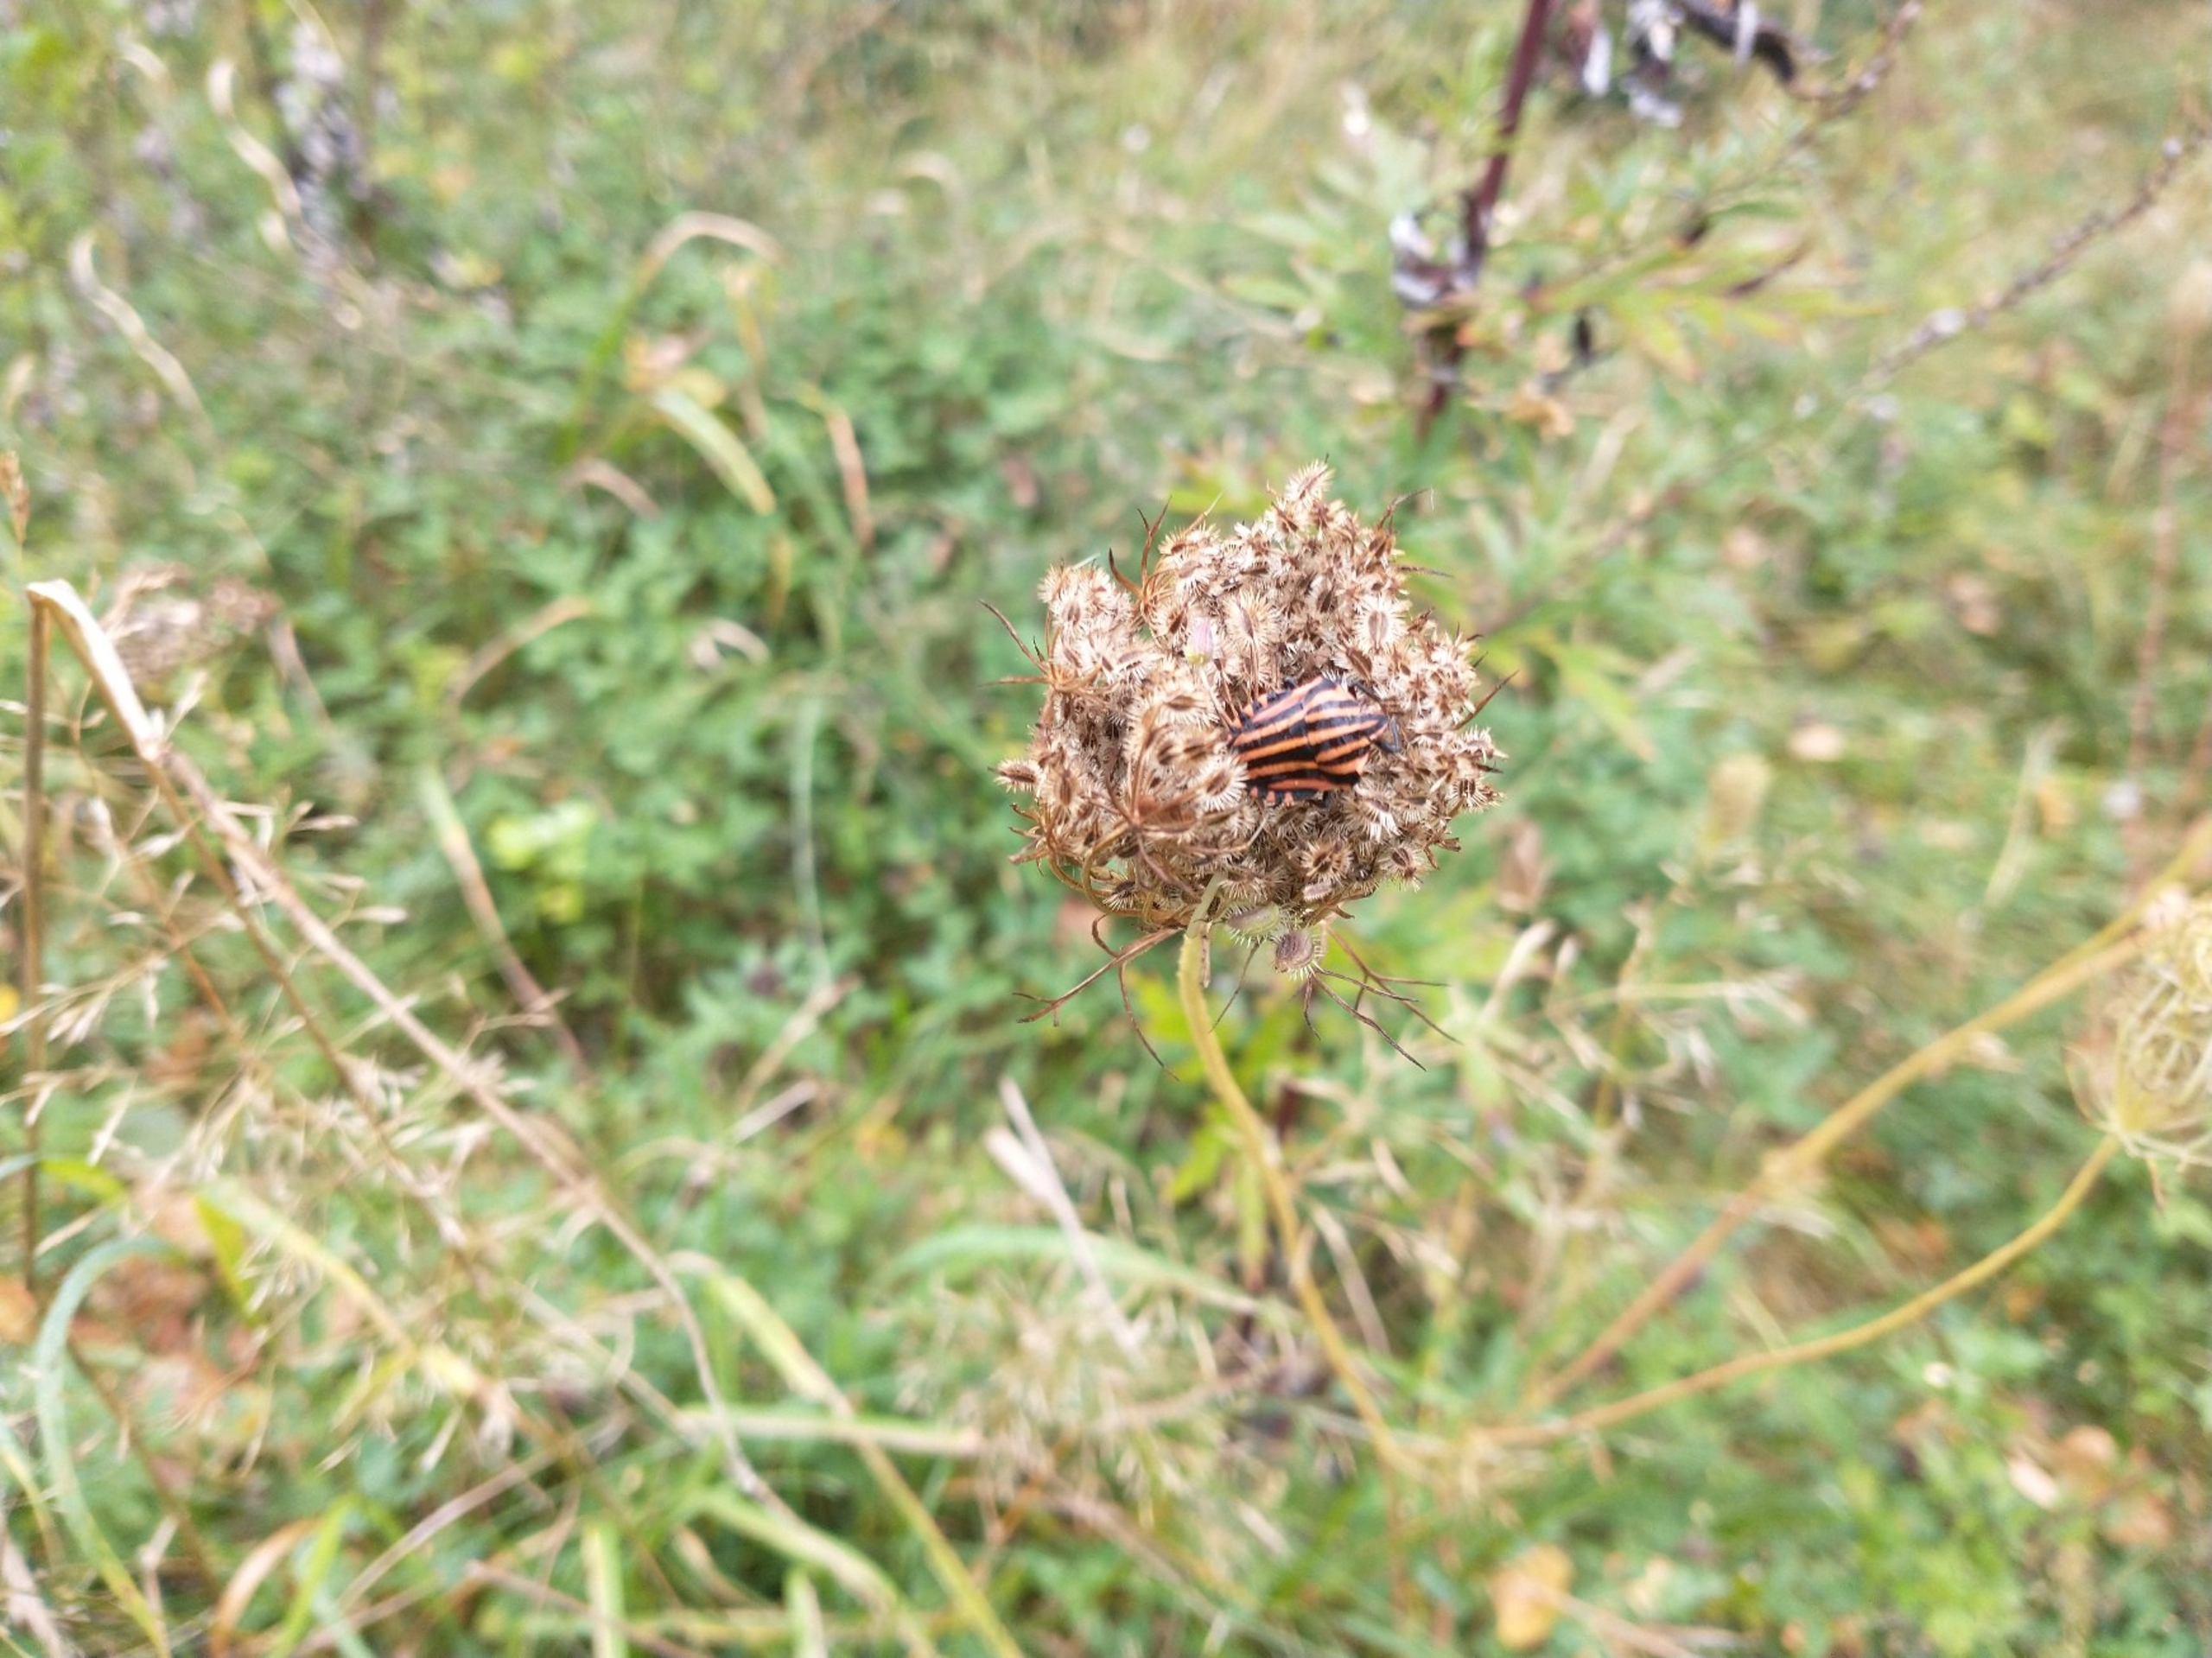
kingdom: Animalia
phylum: Arthropoda
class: Insecta
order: Hemiptera
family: Pentatomidae
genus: Graphosoma
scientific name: Graphosoma italicum
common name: Stribetæge
